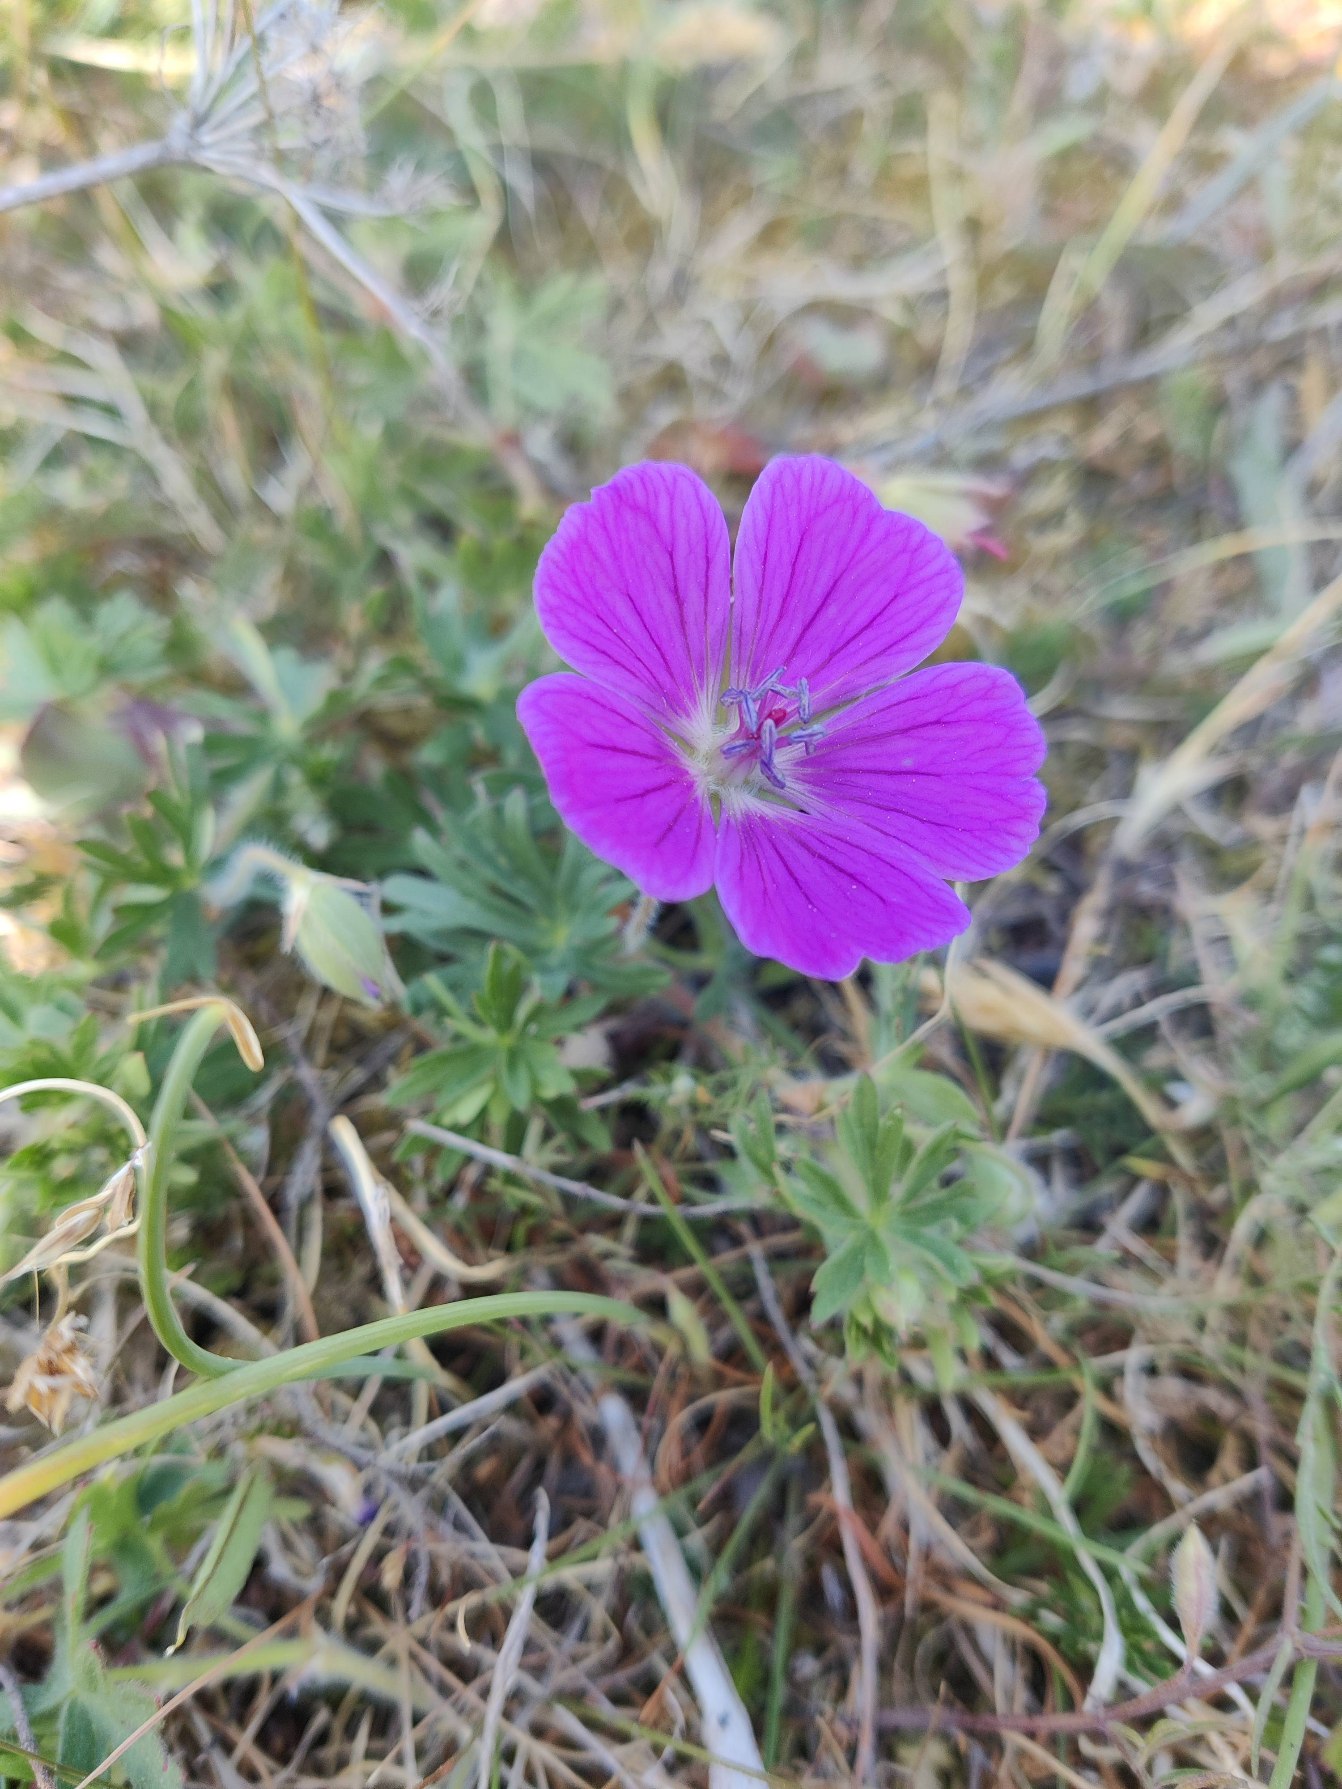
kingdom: Plantae
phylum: Tracheophyta
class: Magnoliopsida
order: Geraniales
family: Geraniaceae
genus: Geranium
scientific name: Geranium sanguineum
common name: Blodrød storkenæb
